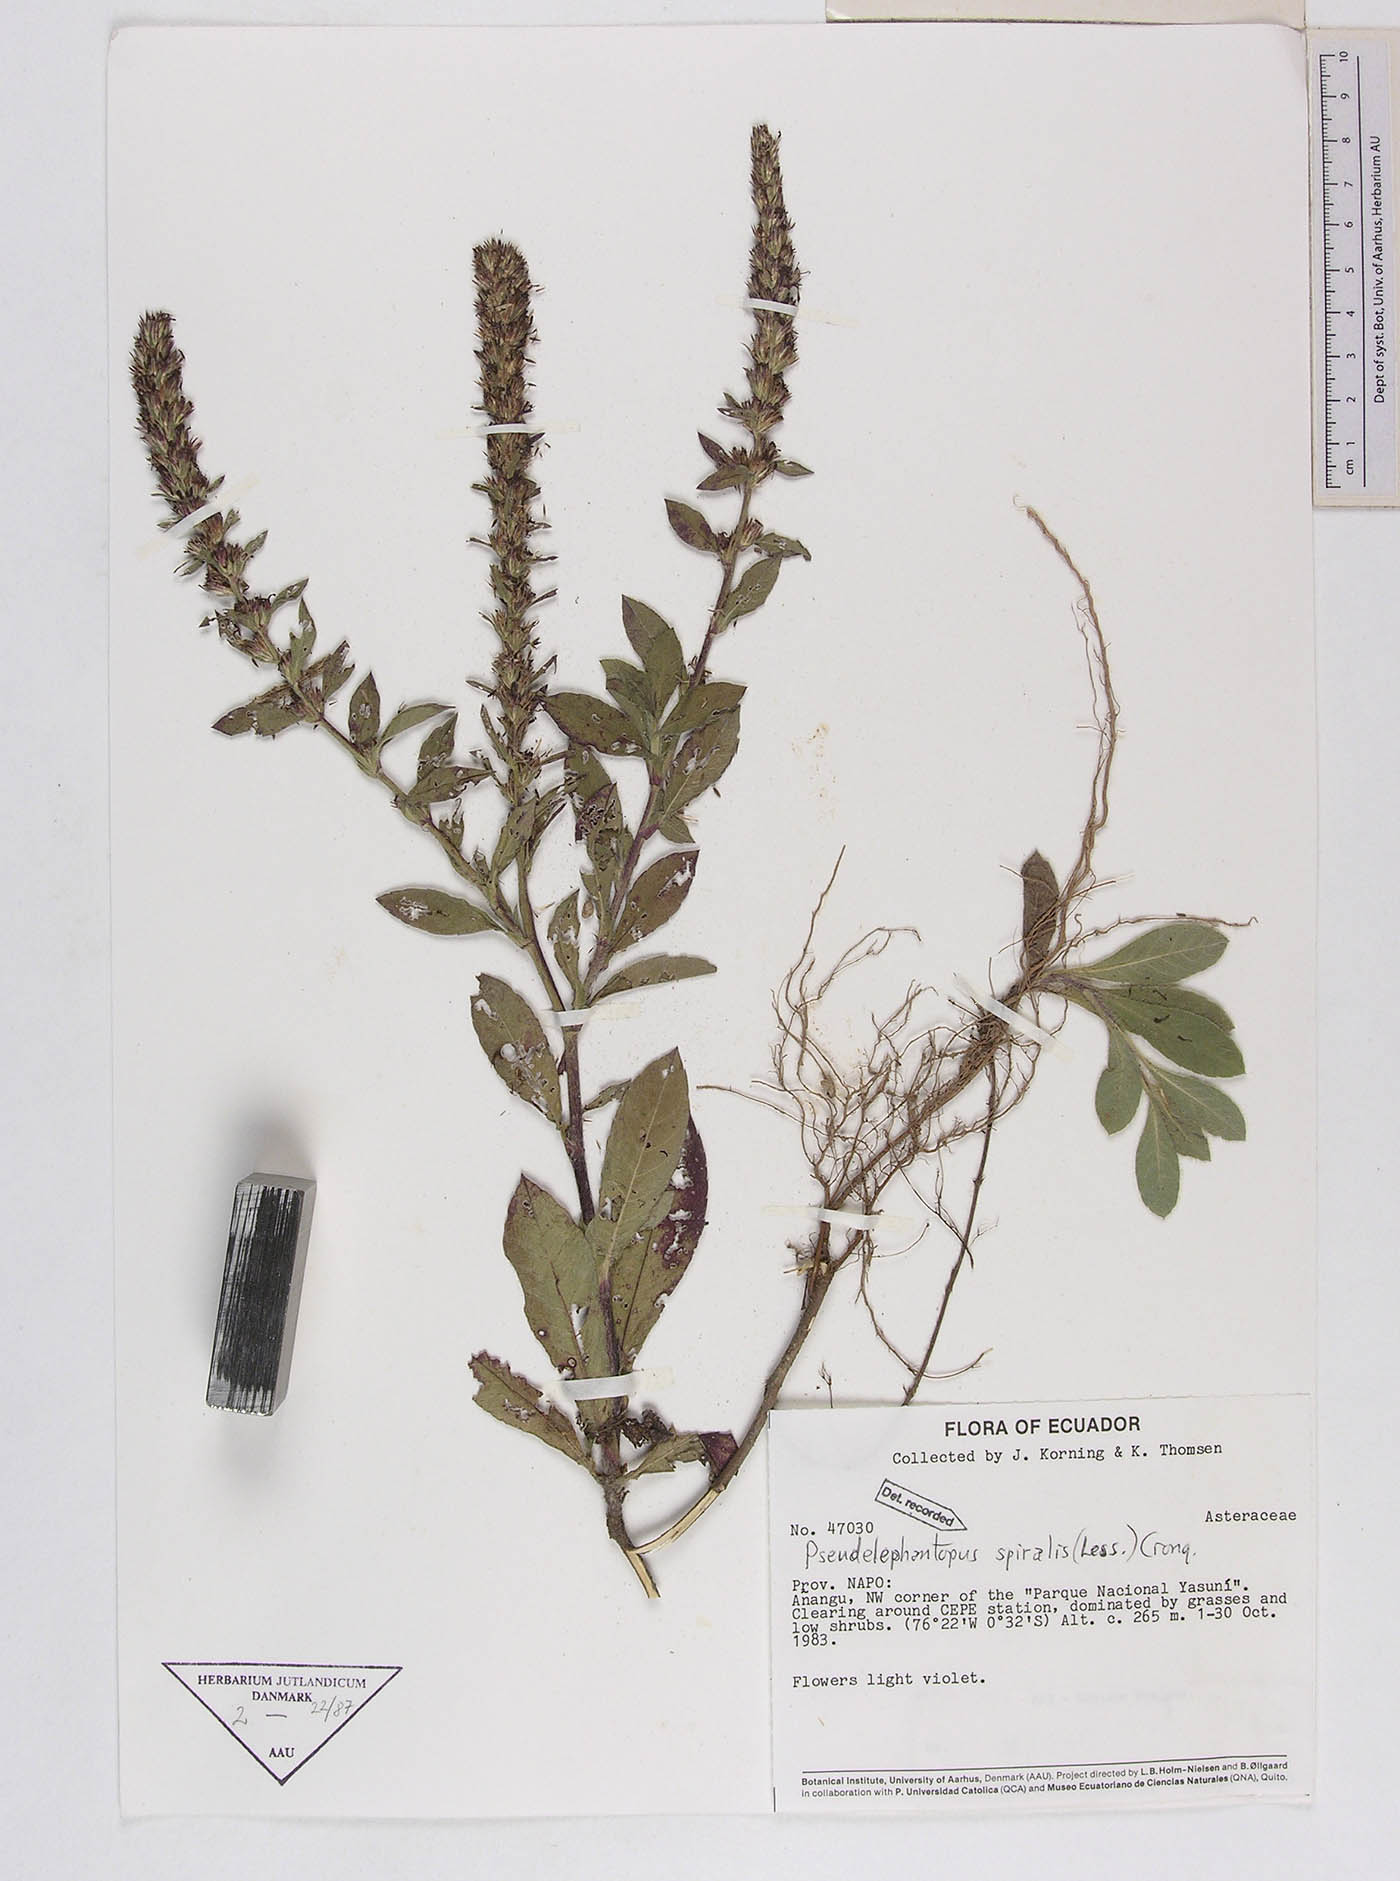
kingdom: Plantae
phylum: Tracheophyta
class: Magnoliopsida
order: Asterales
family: Asteraceae
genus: Pseudelephantopus
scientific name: Pseudelephantopus spiralis
